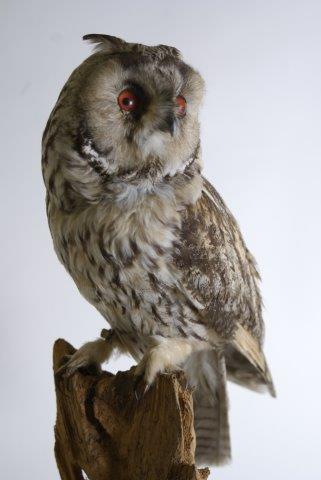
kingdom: Animalia
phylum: Chordata
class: Aves
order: Strigiformes
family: Strigidae
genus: Asio
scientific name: Asio otus
